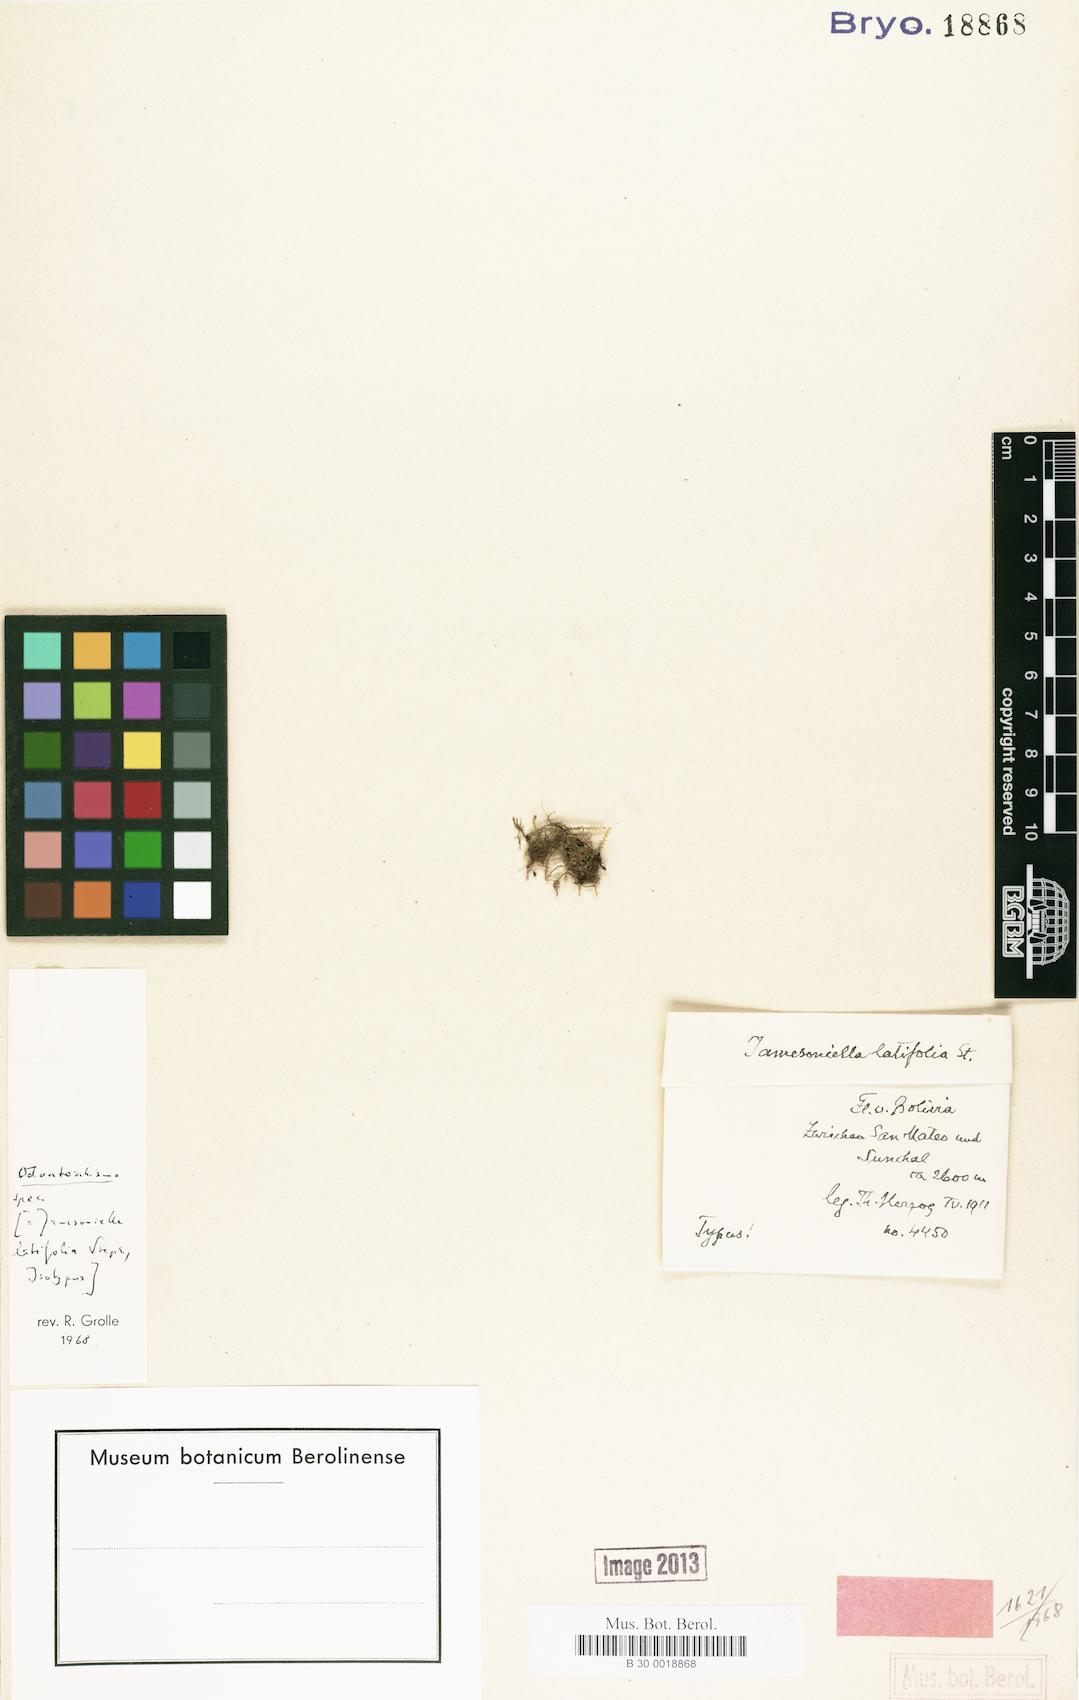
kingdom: Plantae
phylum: Marchantiophyta
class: Jungermanniopsida
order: Jungermanniales
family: Cephaloziaceae
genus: Odontoschisma
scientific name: Odontoschisma
